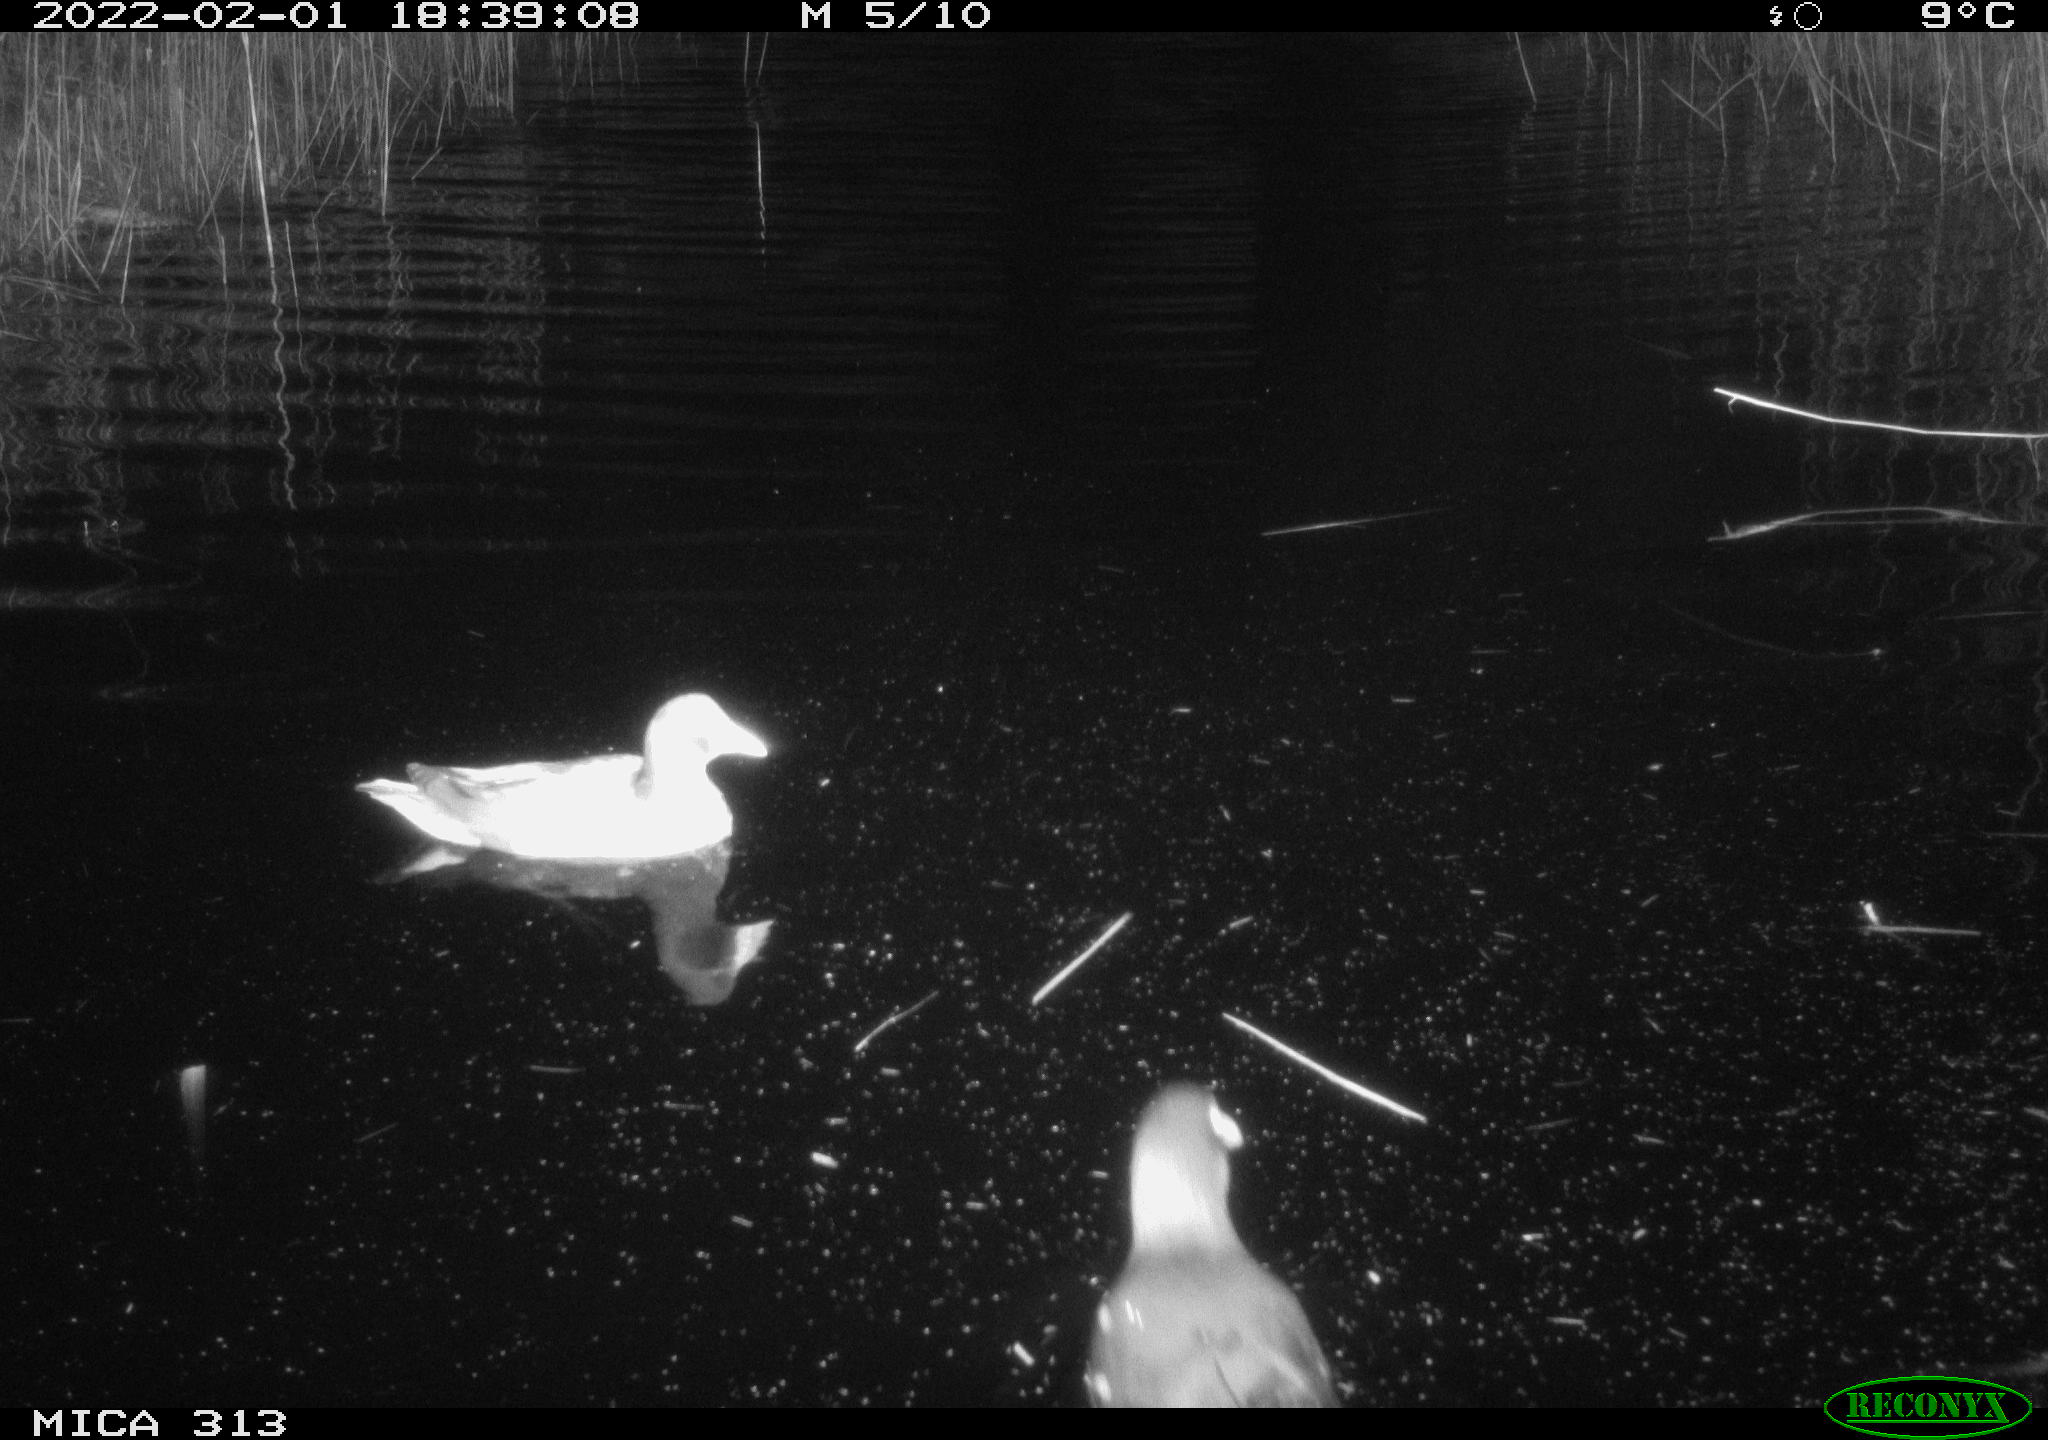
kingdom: Animalia
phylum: Chordata
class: Aves
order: Gruiformes
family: Rallidae
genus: Gallinula
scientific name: Gallinula chloropus
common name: Common moorhen
